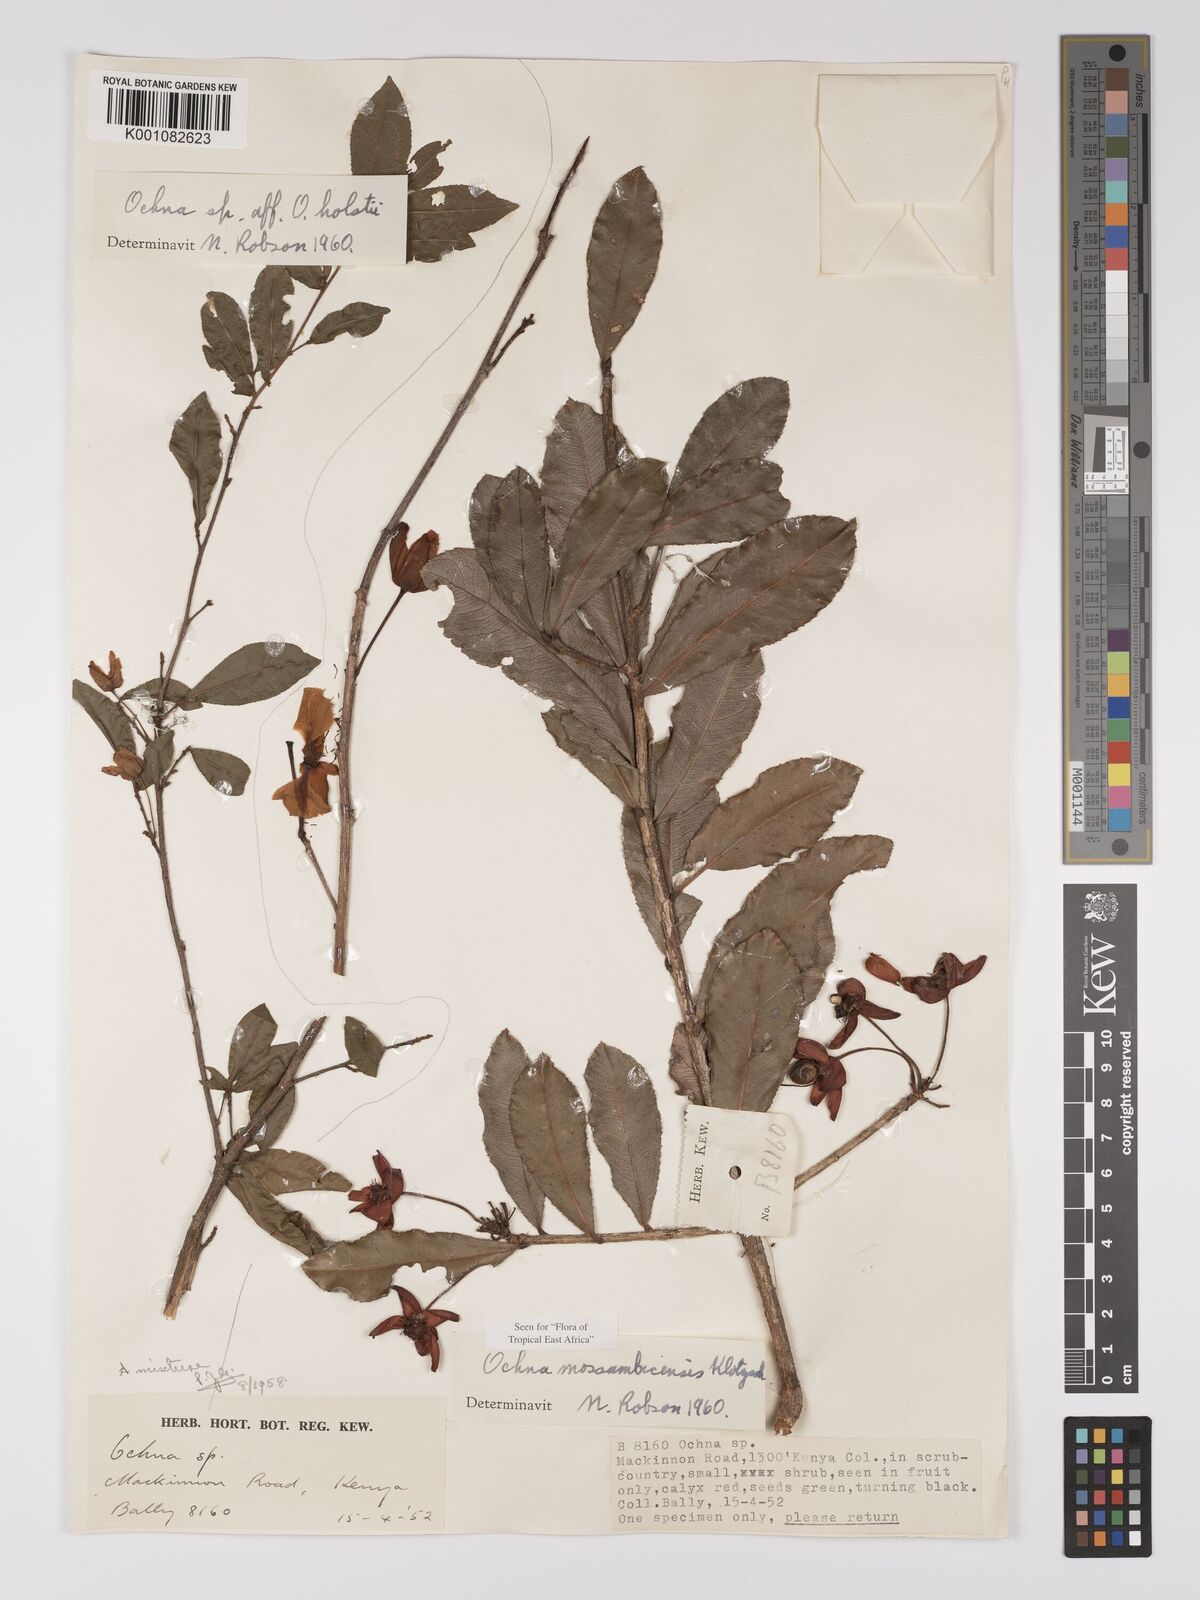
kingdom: Plantae
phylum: Tracheophyta
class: Magnoliopsida
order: Malpighiales
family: Ochnaceae
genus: Ochna
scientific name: Ochna atropurpurea
